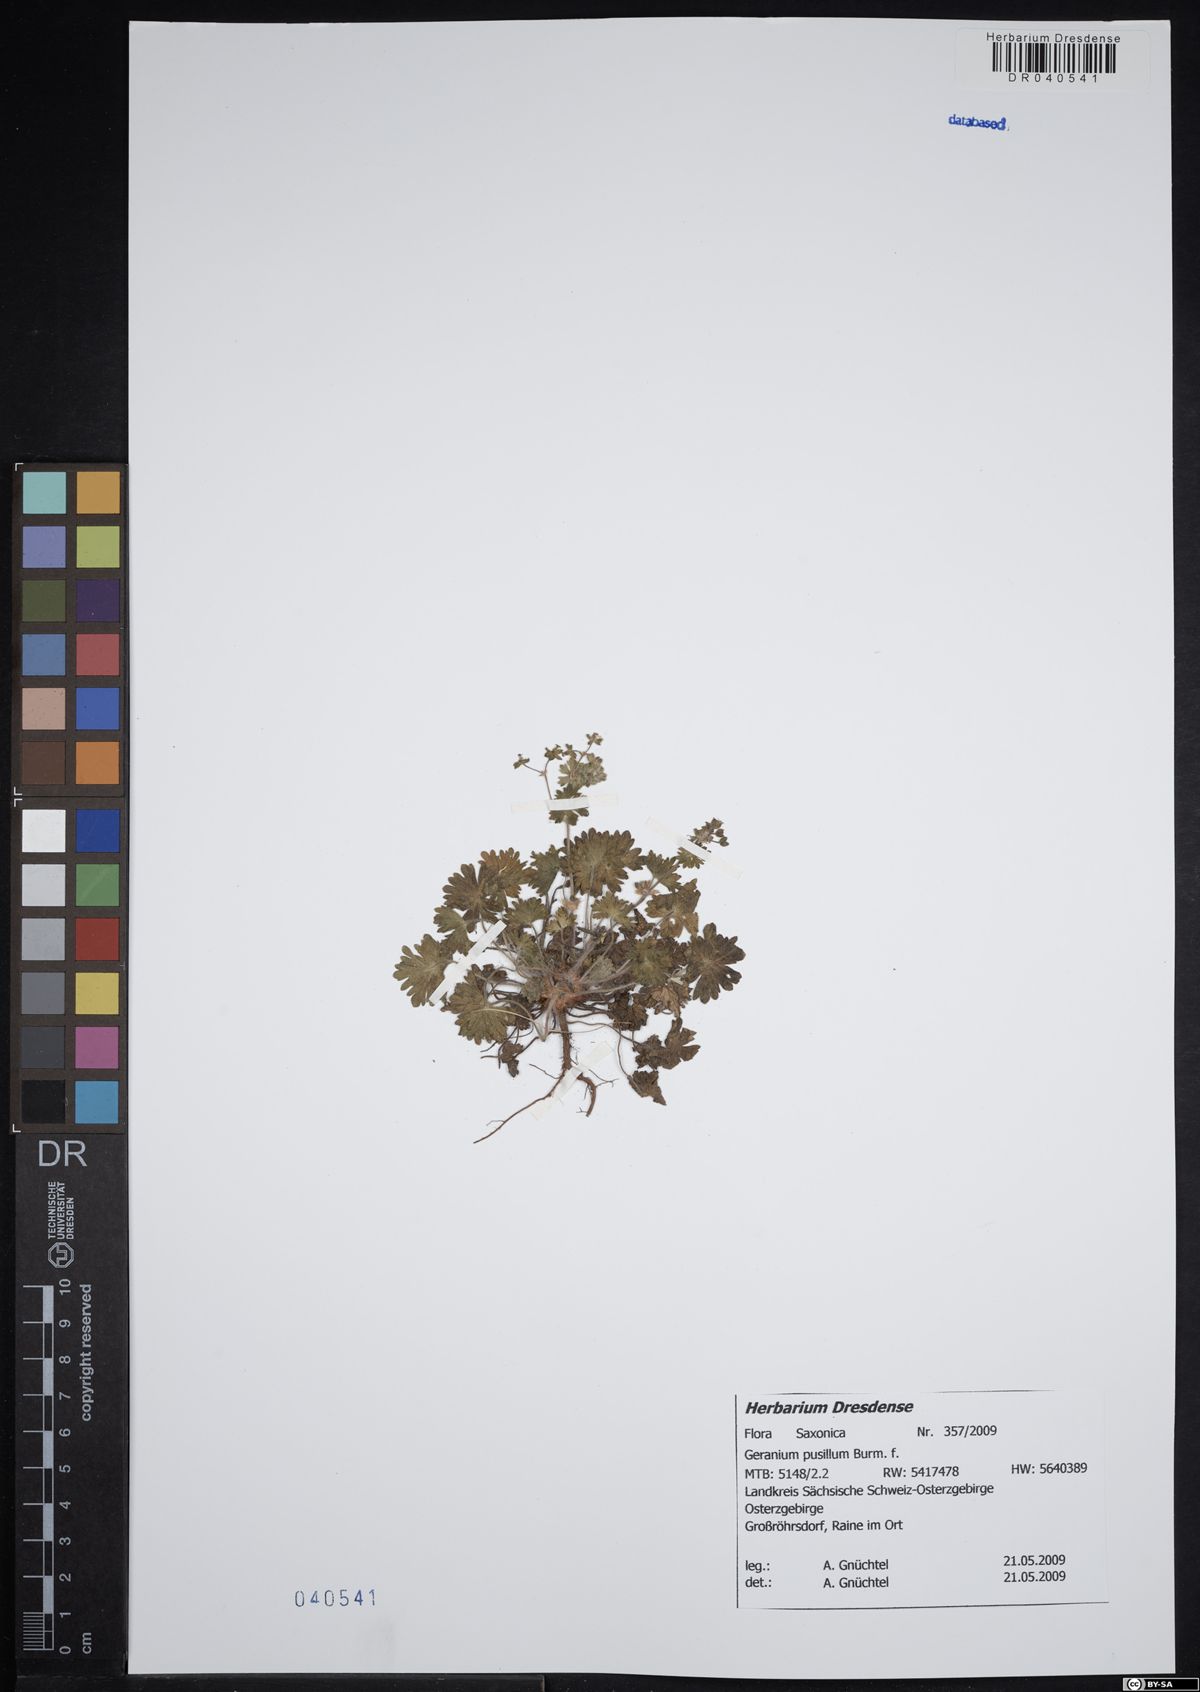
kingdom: Plantae
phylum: Tracheophyta
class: Magnoliopsida
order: Geraniales
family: Geraniaceae
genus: Geranium
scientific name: Geranium pusillum
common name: Small geranium
